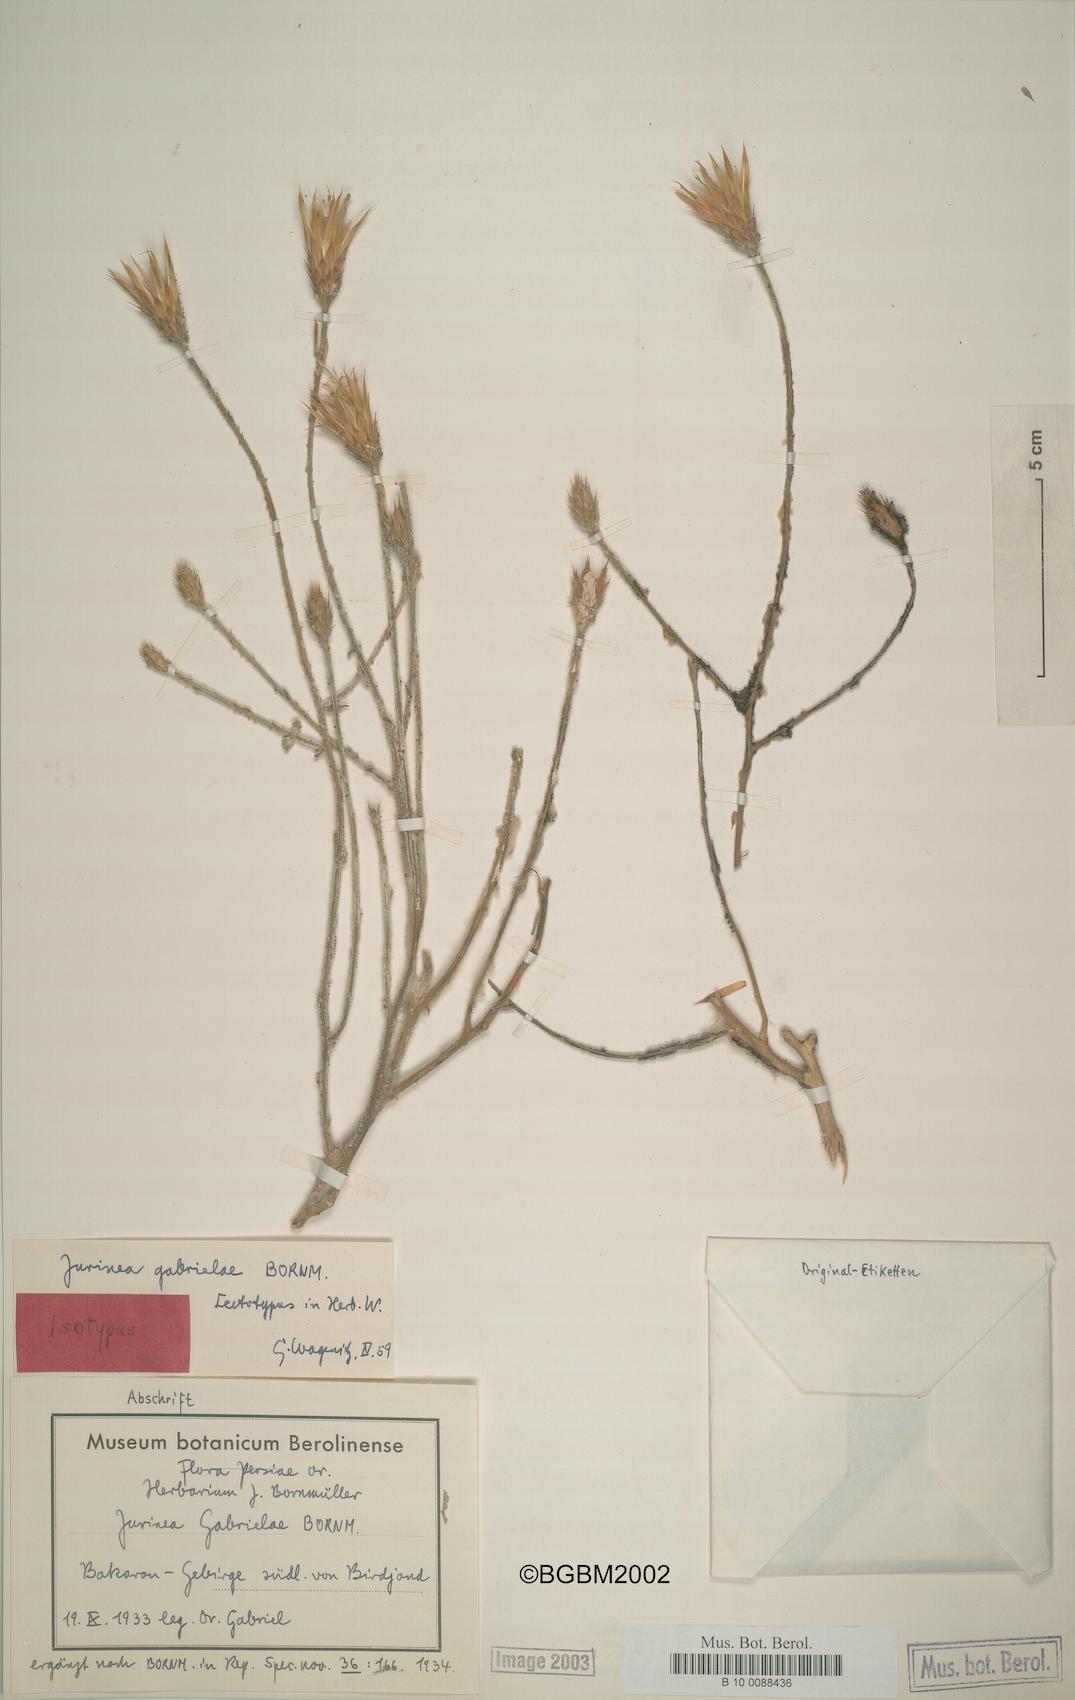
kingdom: Plantae
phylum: Tracheophyta
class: Magnoliopsida
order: Asterales
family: Asteraceae
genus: Jurinea
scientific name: Jurinea gabrielae
